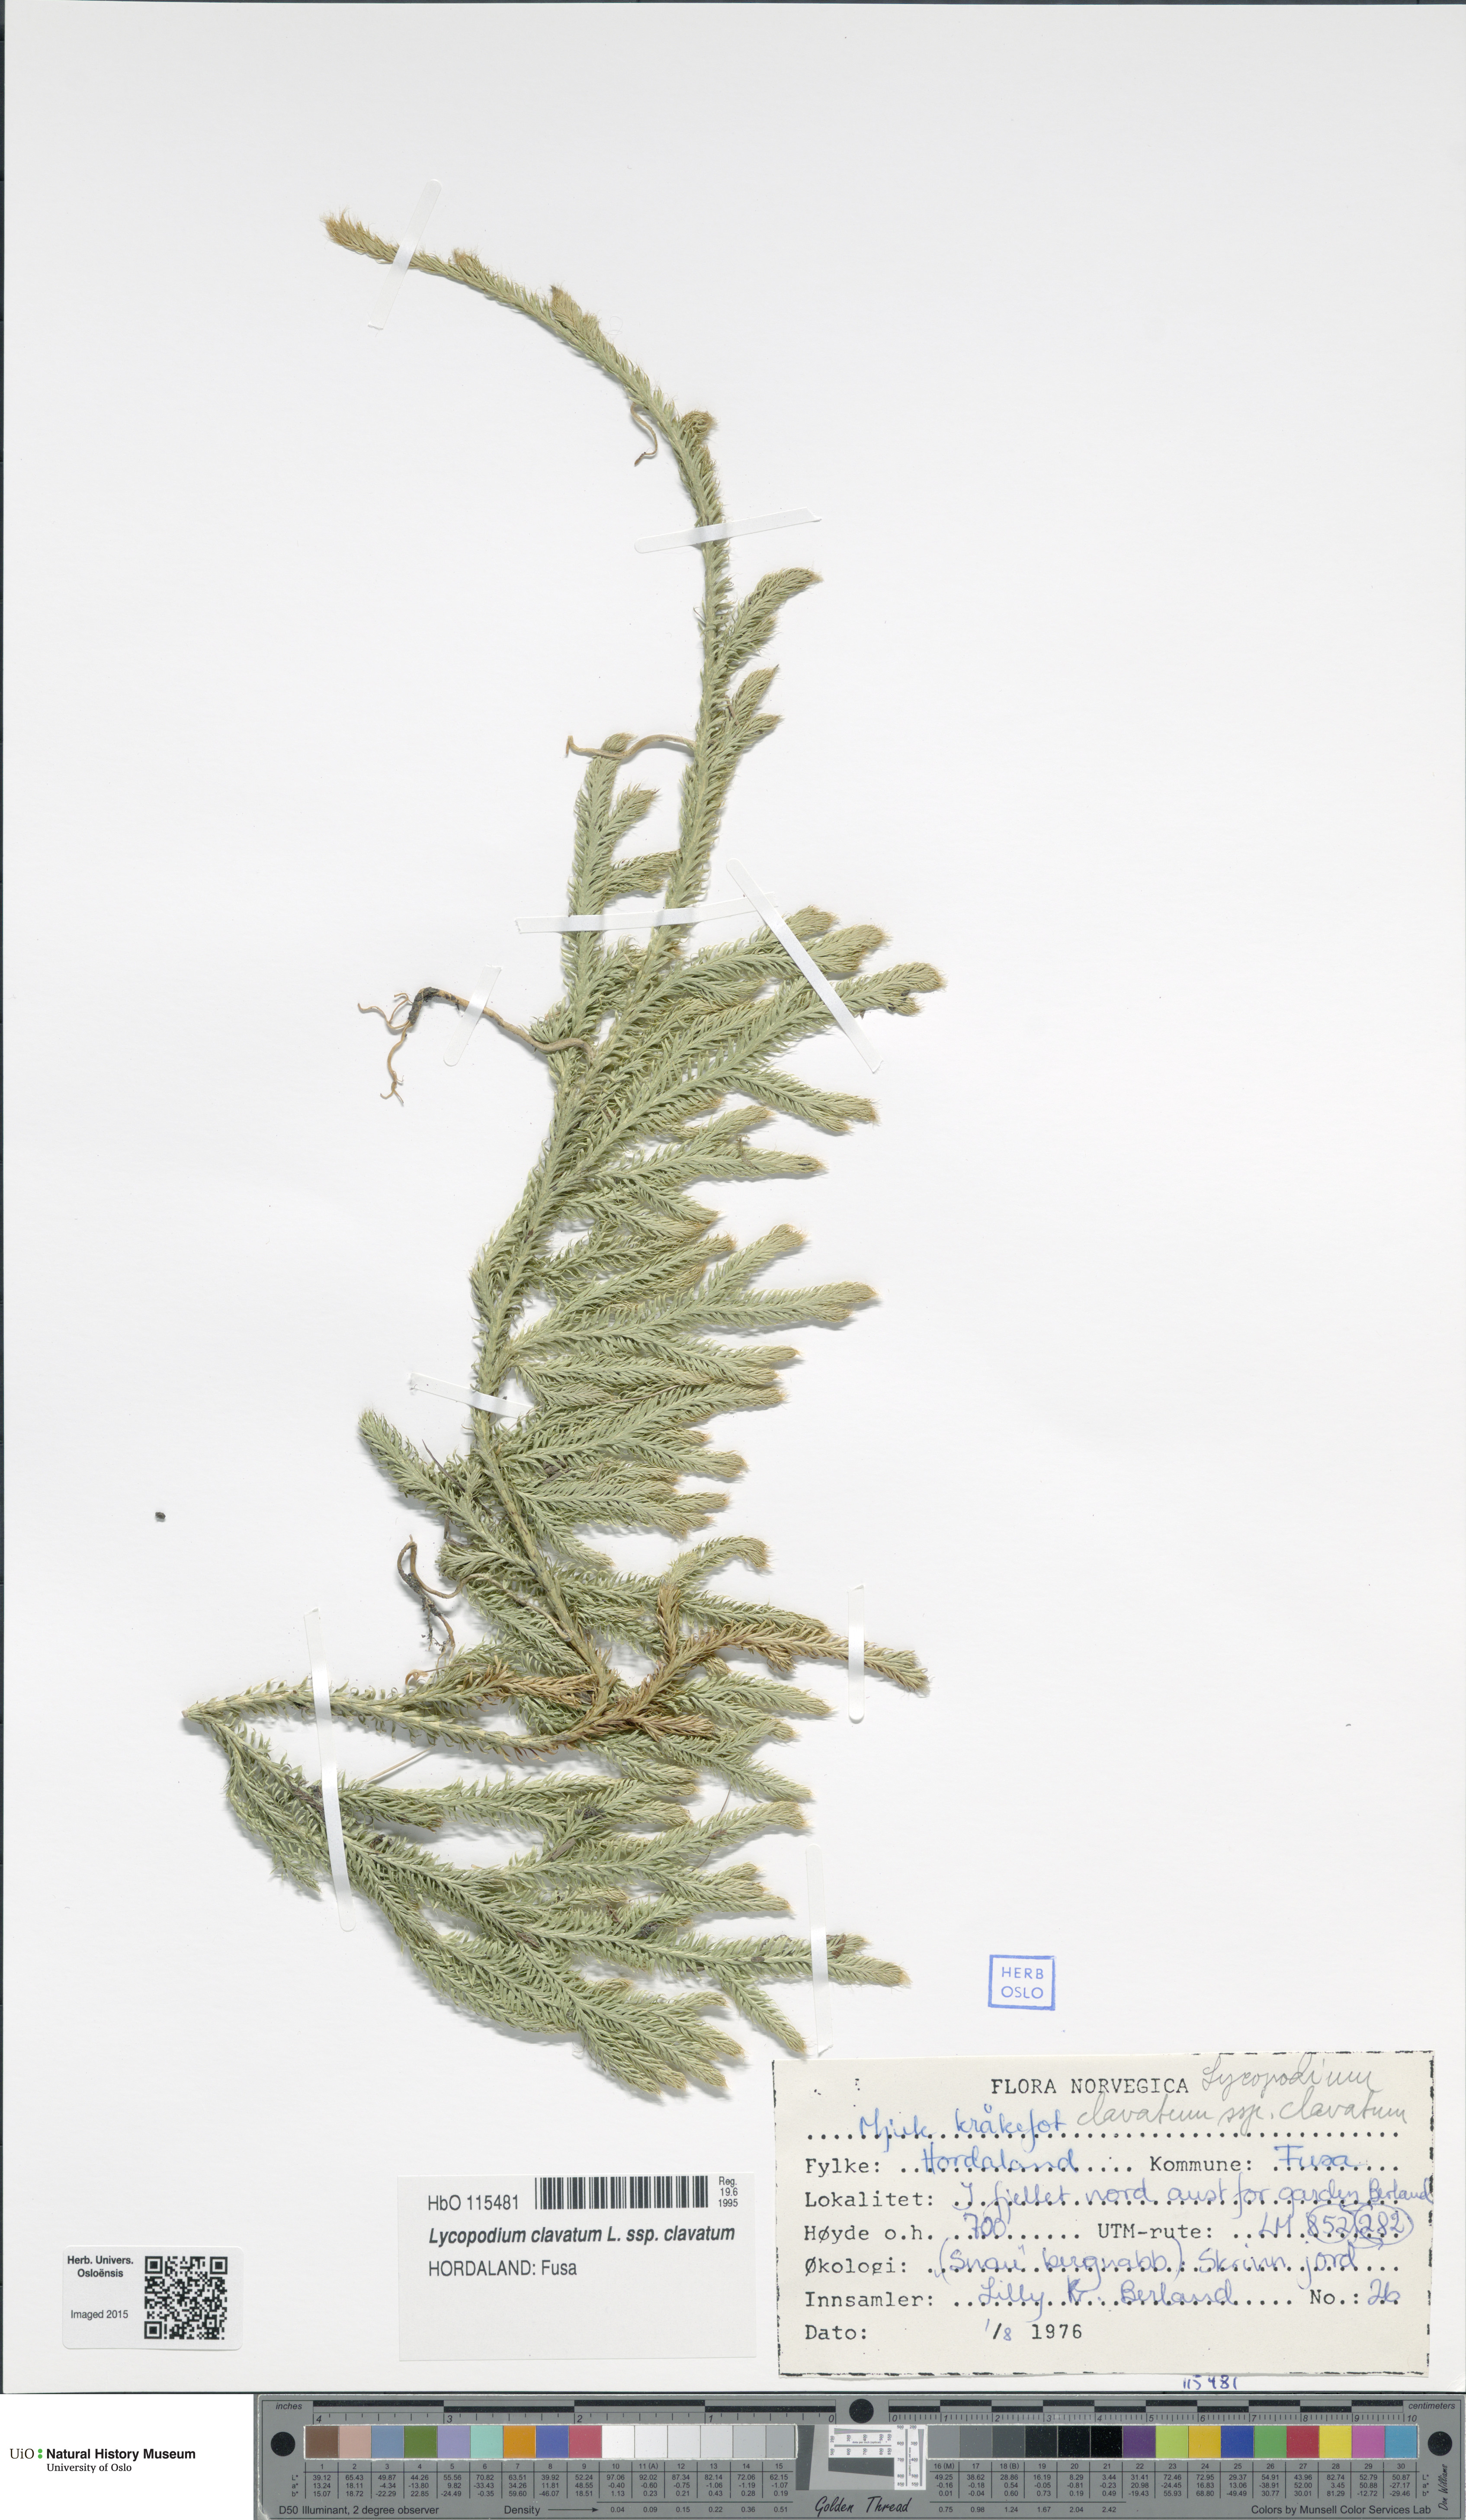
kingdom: Plantae
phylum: Tracheophyta
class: Lycopodiopsida
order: Lycopodiales
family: Lycopodiaceae
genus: Lycopodium
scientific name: Lycopodium clavatum
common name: Stag's-horn clubmoss
